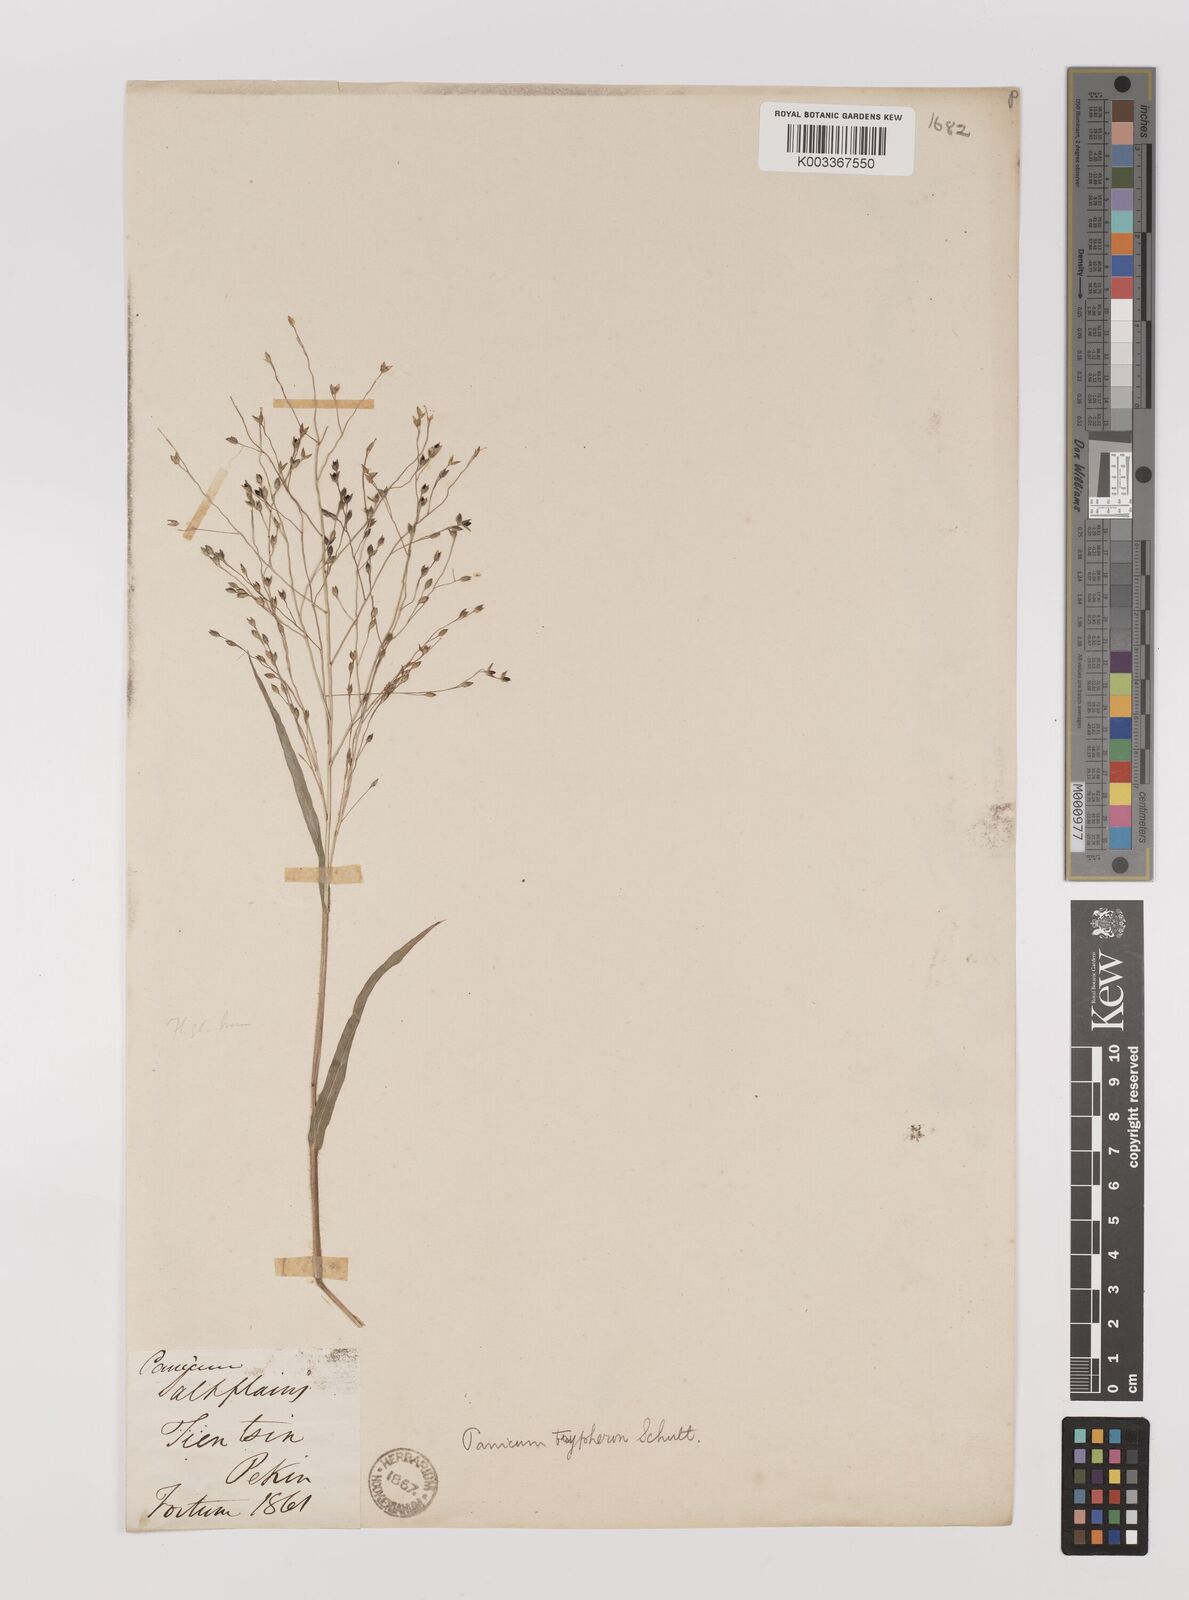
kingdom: Plantae
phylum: Tracheophyta
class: Liliopsida
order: Poales
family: Poaceae
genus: Panicum
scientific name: Panicum elegantissimum
